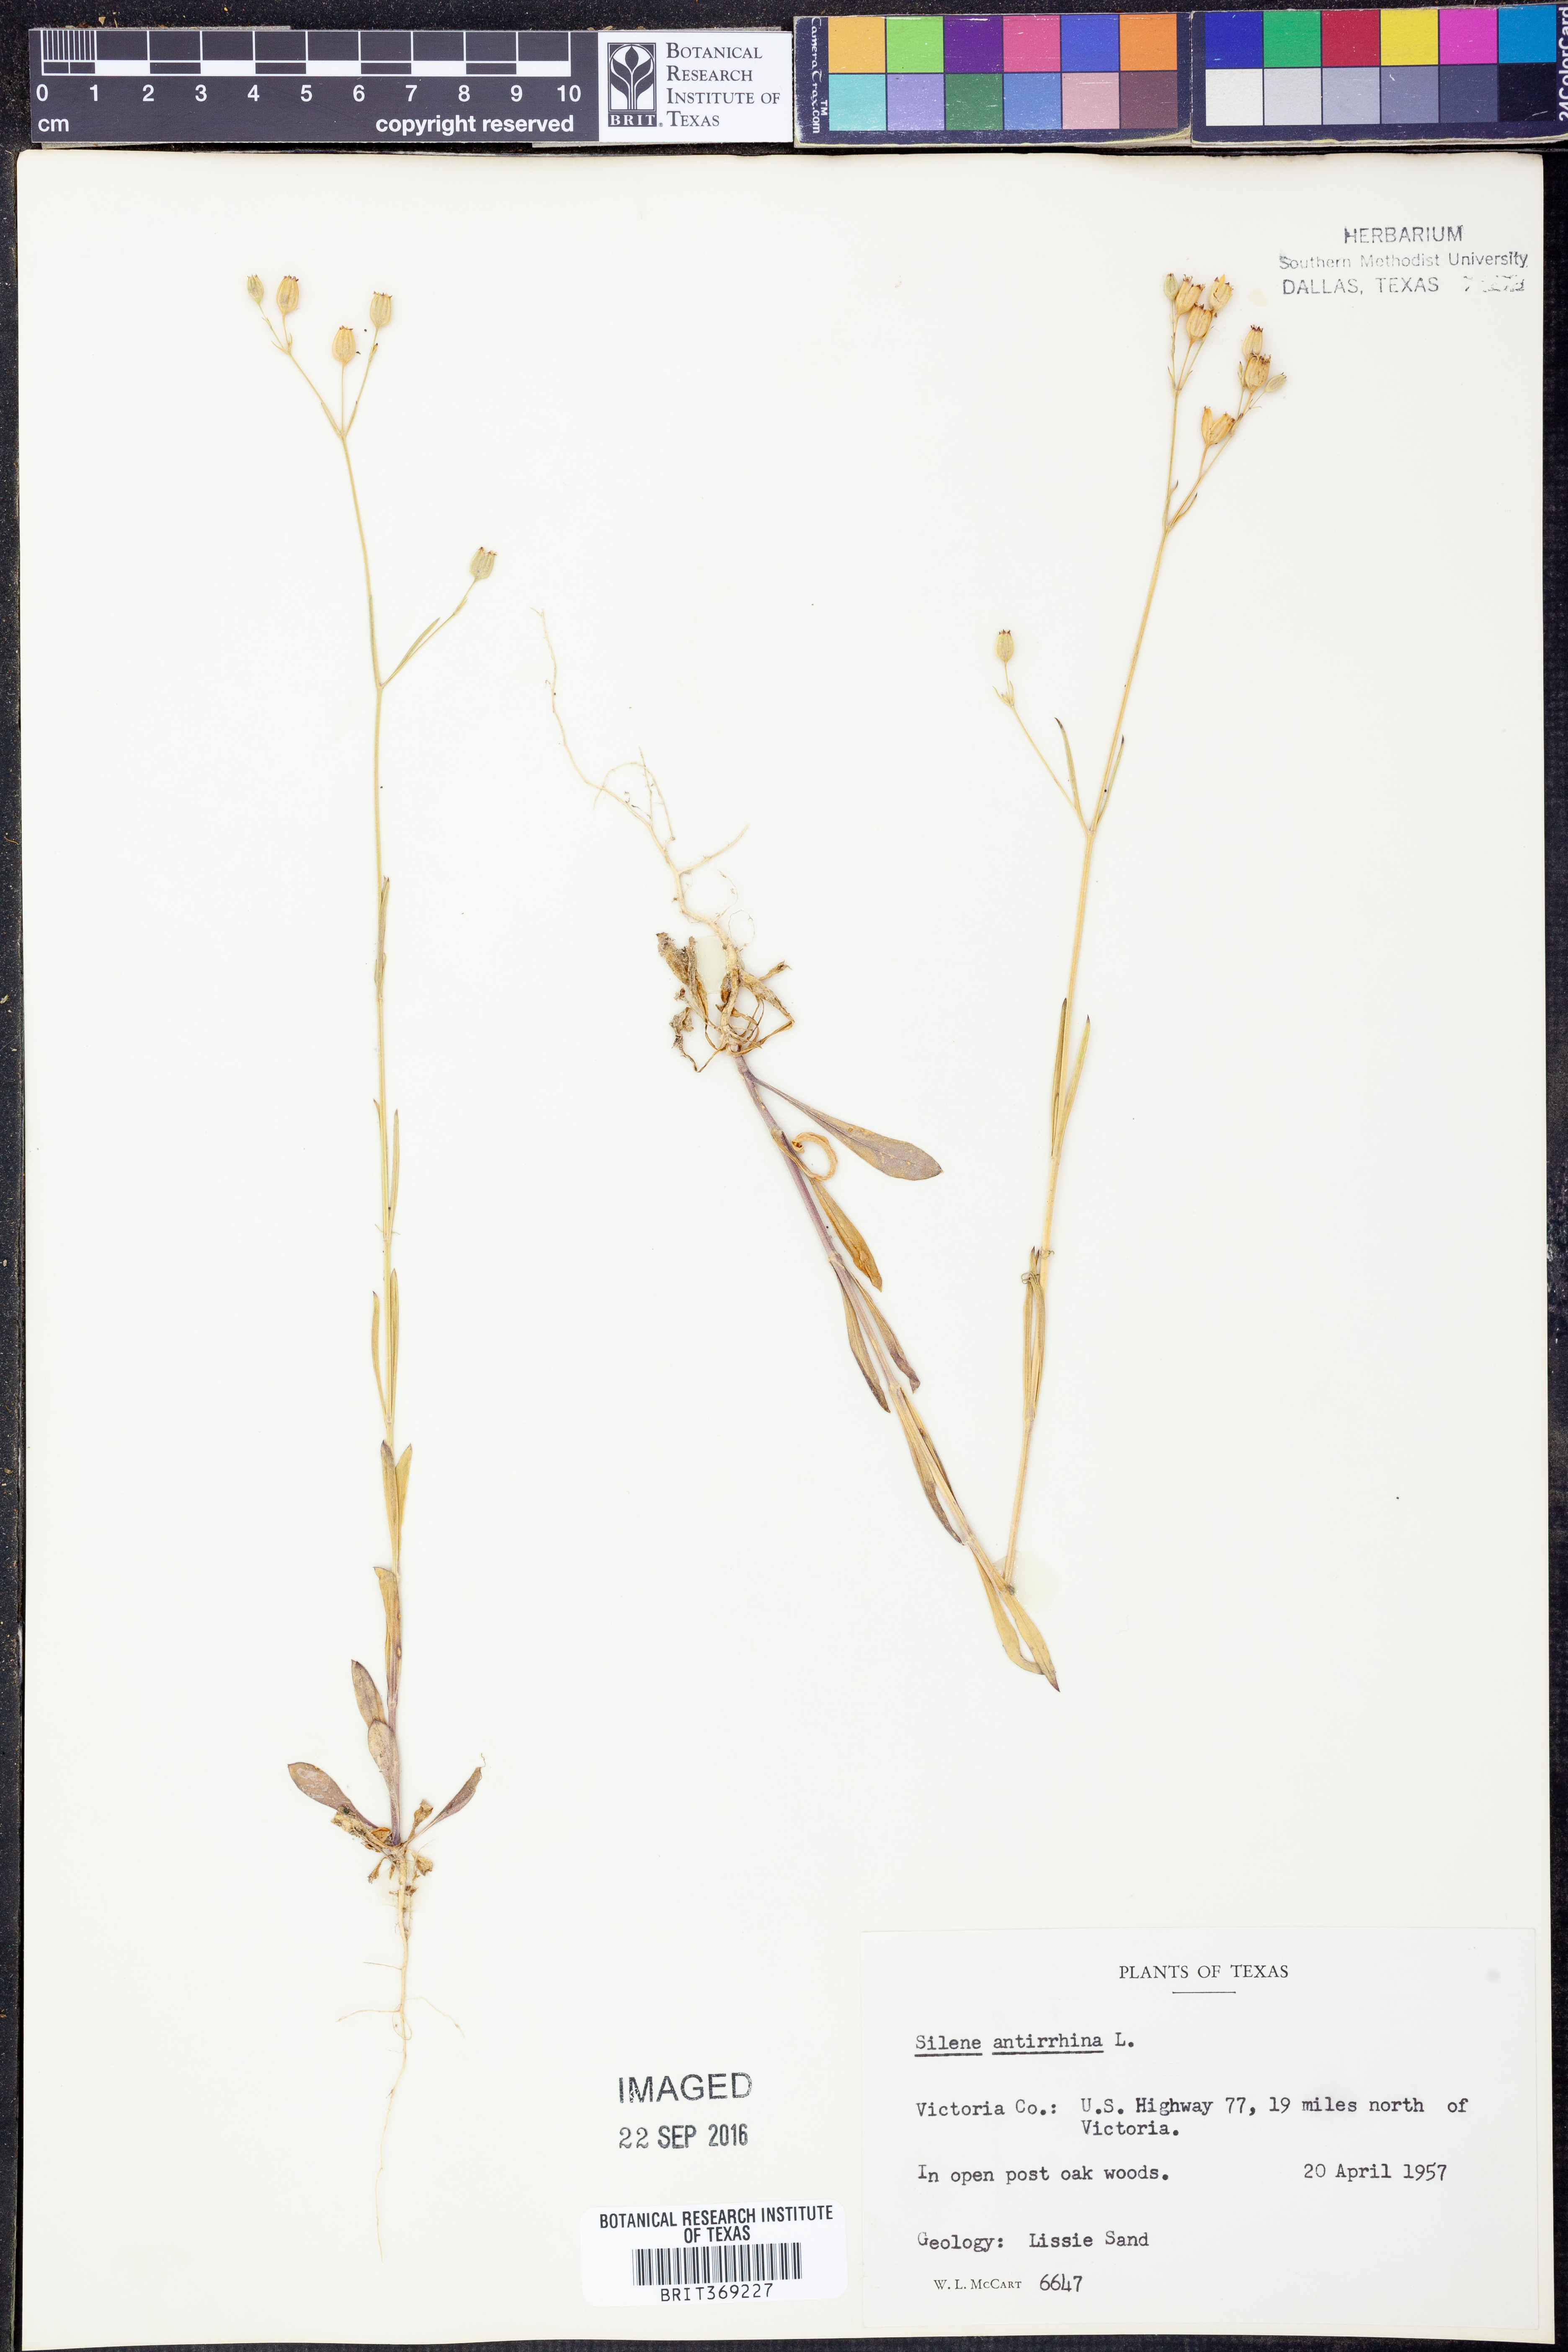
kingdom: Plantae
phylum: Tracheophyta
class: Magnoliopsida
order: Caryophyllales
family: Caryophyllaceae
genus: Silene
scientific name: Silene antirrhina
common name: Sleepy catchfly
